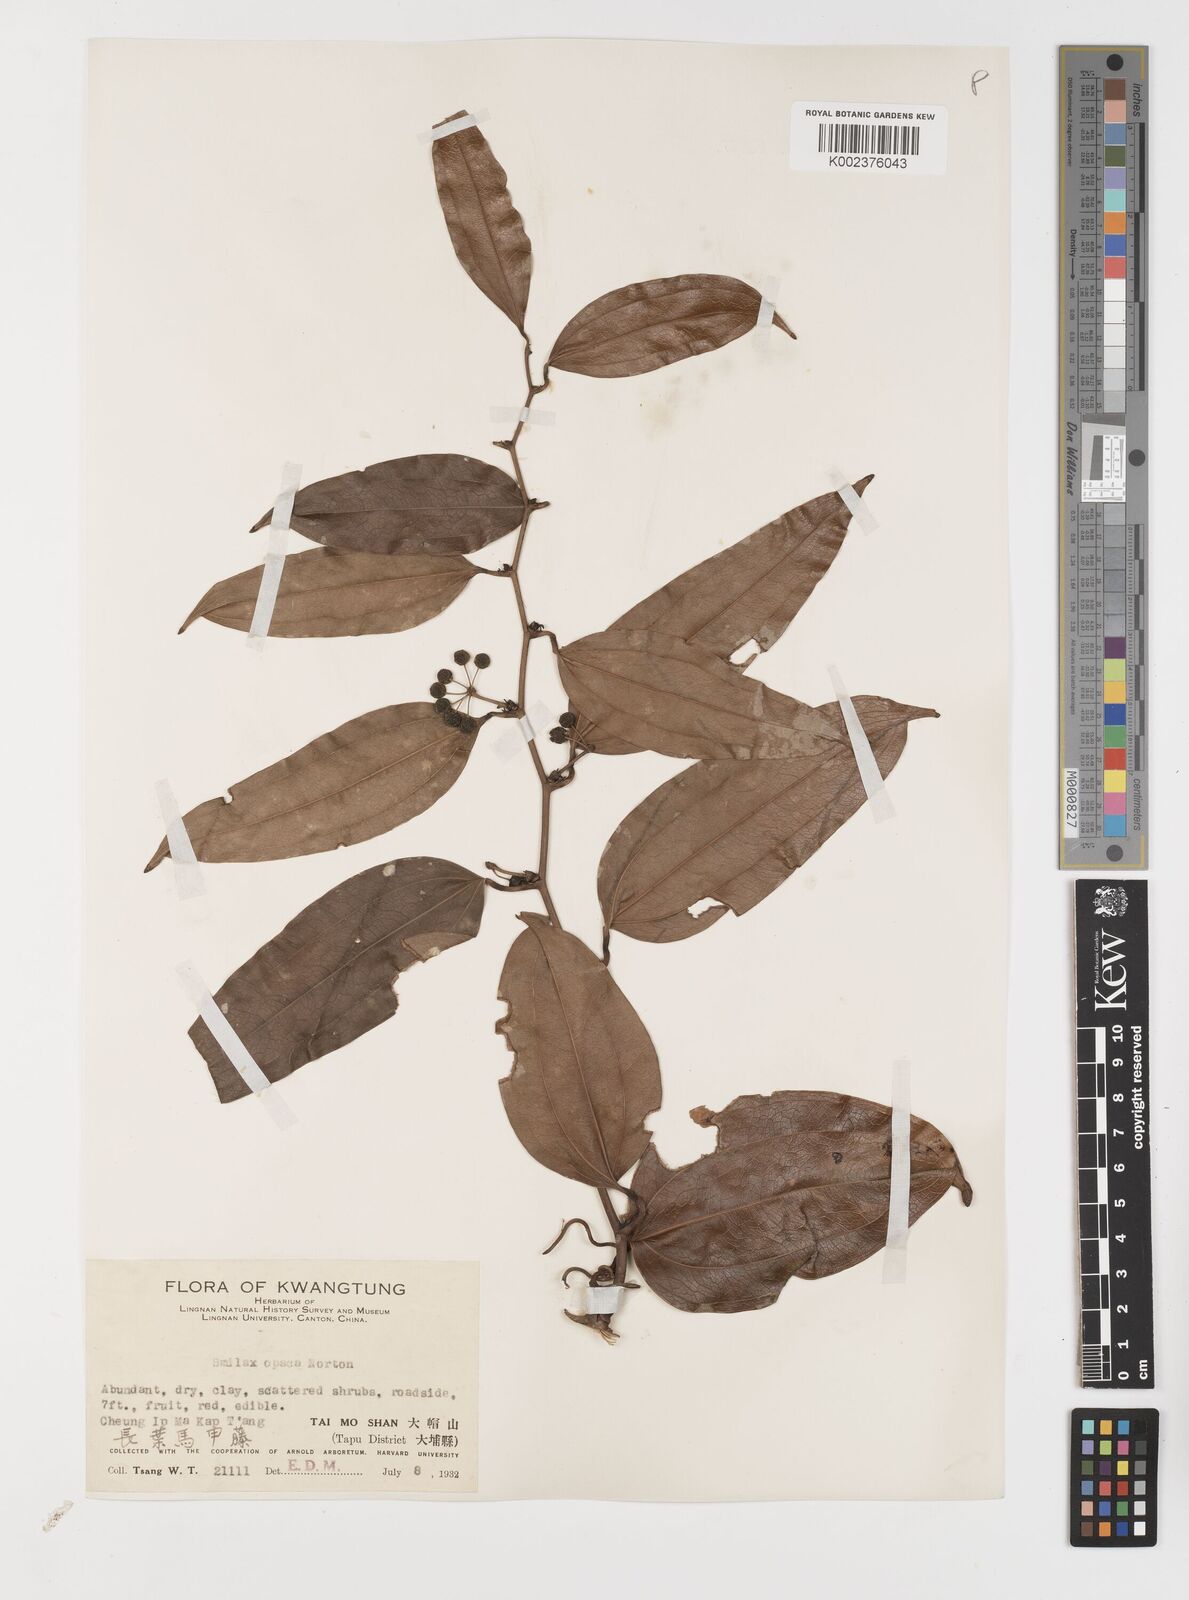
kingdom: Plantae
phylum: Tracheophyta
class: Liliopsida
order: Liliales
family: Smilacaceae
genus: Smilax
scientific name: Smilax laevis
